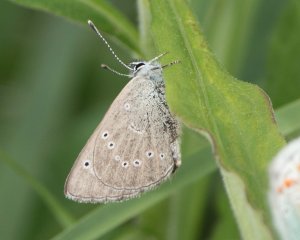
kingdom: Animalia
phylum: Arthropoda
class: Insecta
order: Lepidoptera
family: Lycaenidae
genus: Glaucopsyche
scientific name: Glaucopsyche lygdamus
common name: Silvery Blue
